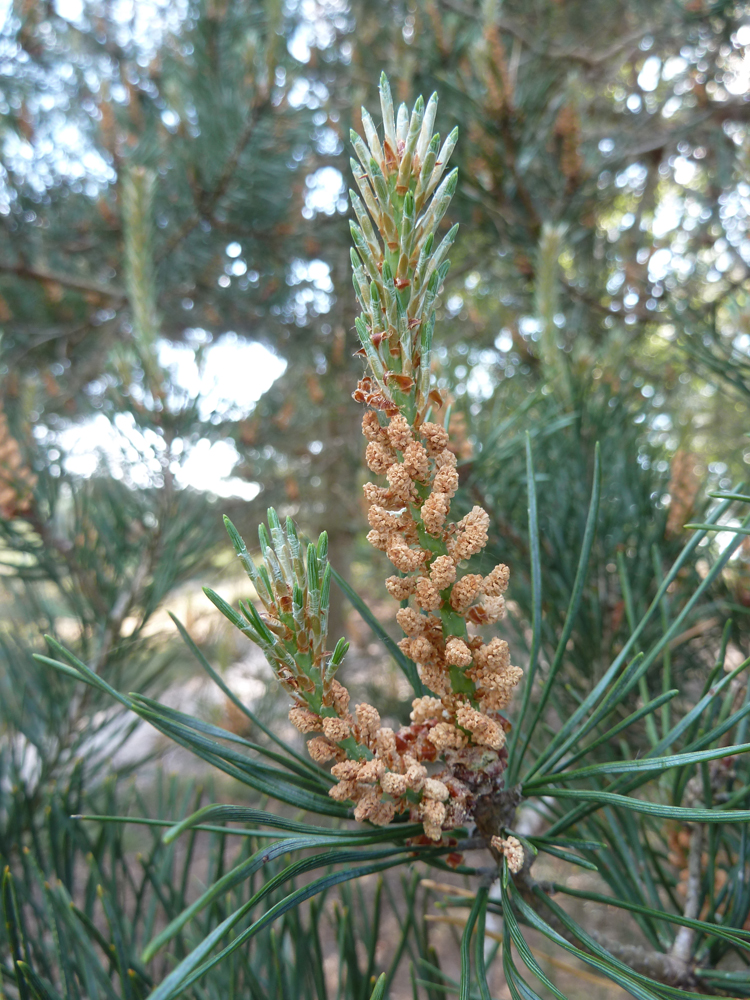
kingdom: Plantae
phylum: Tracheophyta
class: Pinopsida
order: Pinales
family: Pinaceae
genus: Pinus
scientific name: Pinus sylvestris
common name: Scots pine
